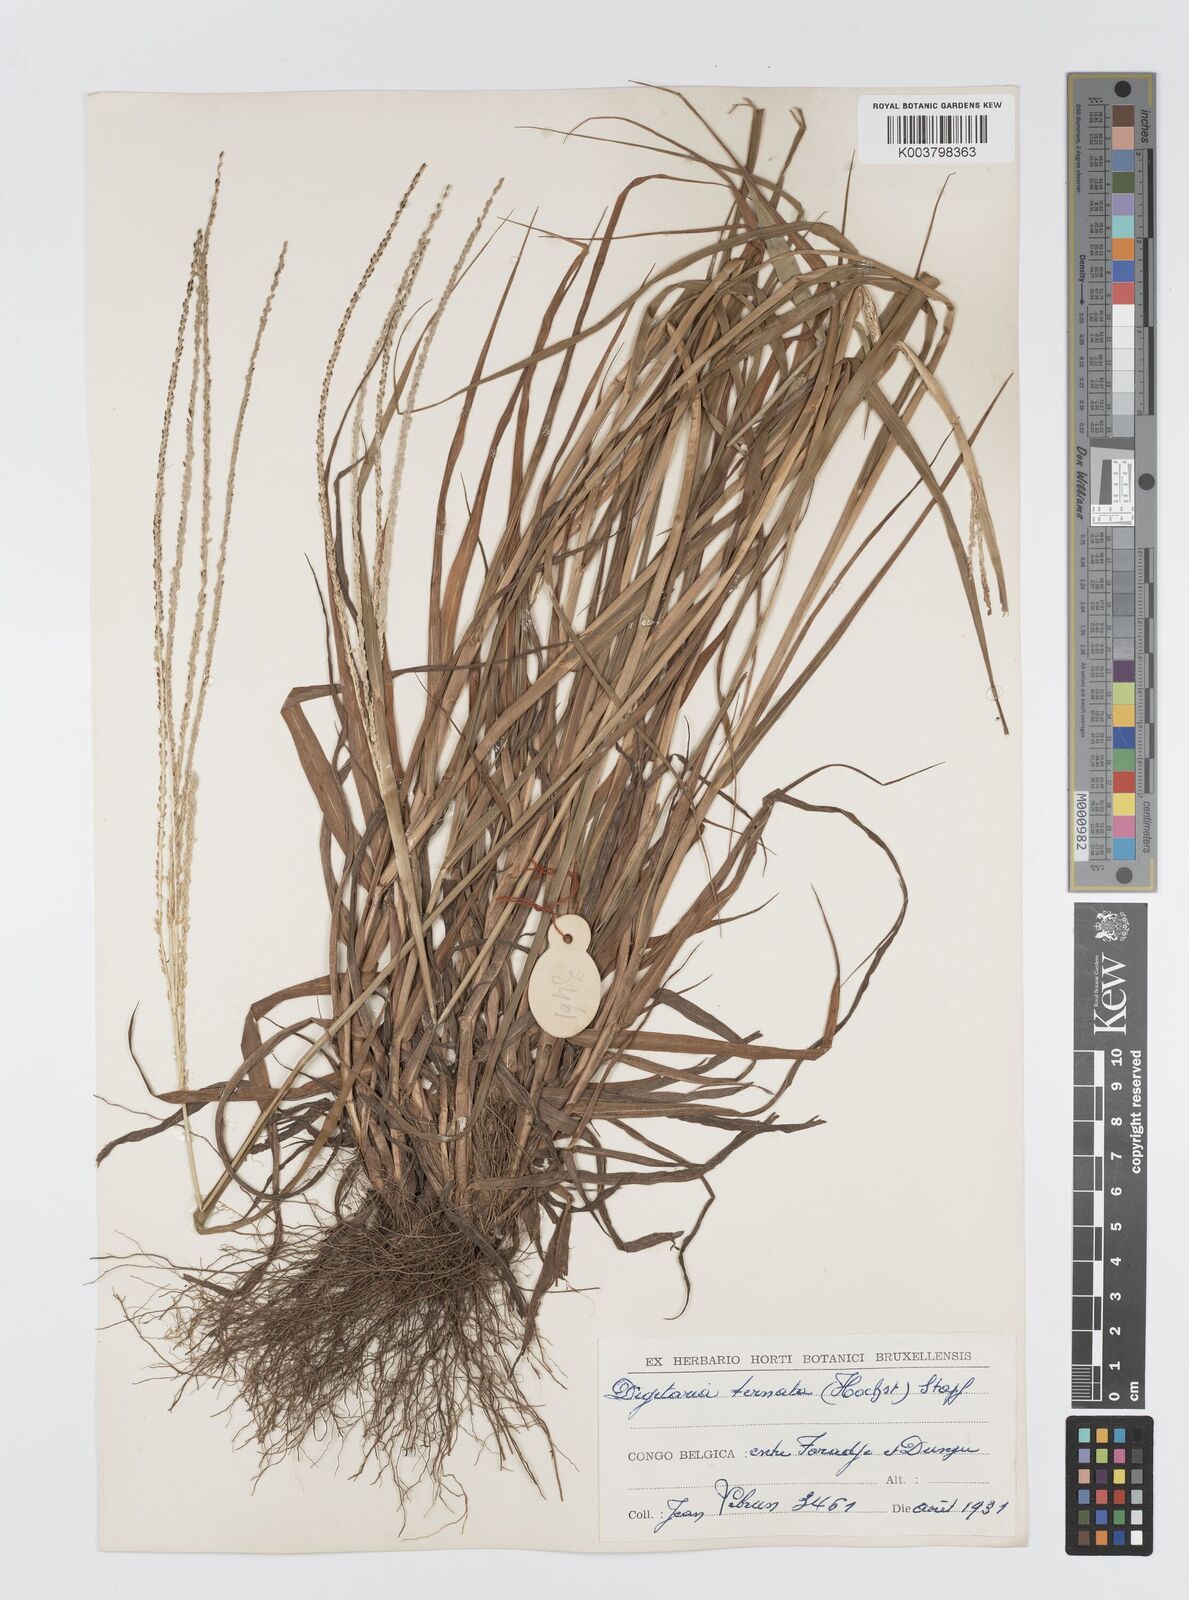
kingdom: Plantae
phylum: Tracheophyta
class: Liliopsida
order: Poales
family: Poaceae
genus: Digitaria
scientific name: Digitaria ternata
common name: Blackseed crabgrass
